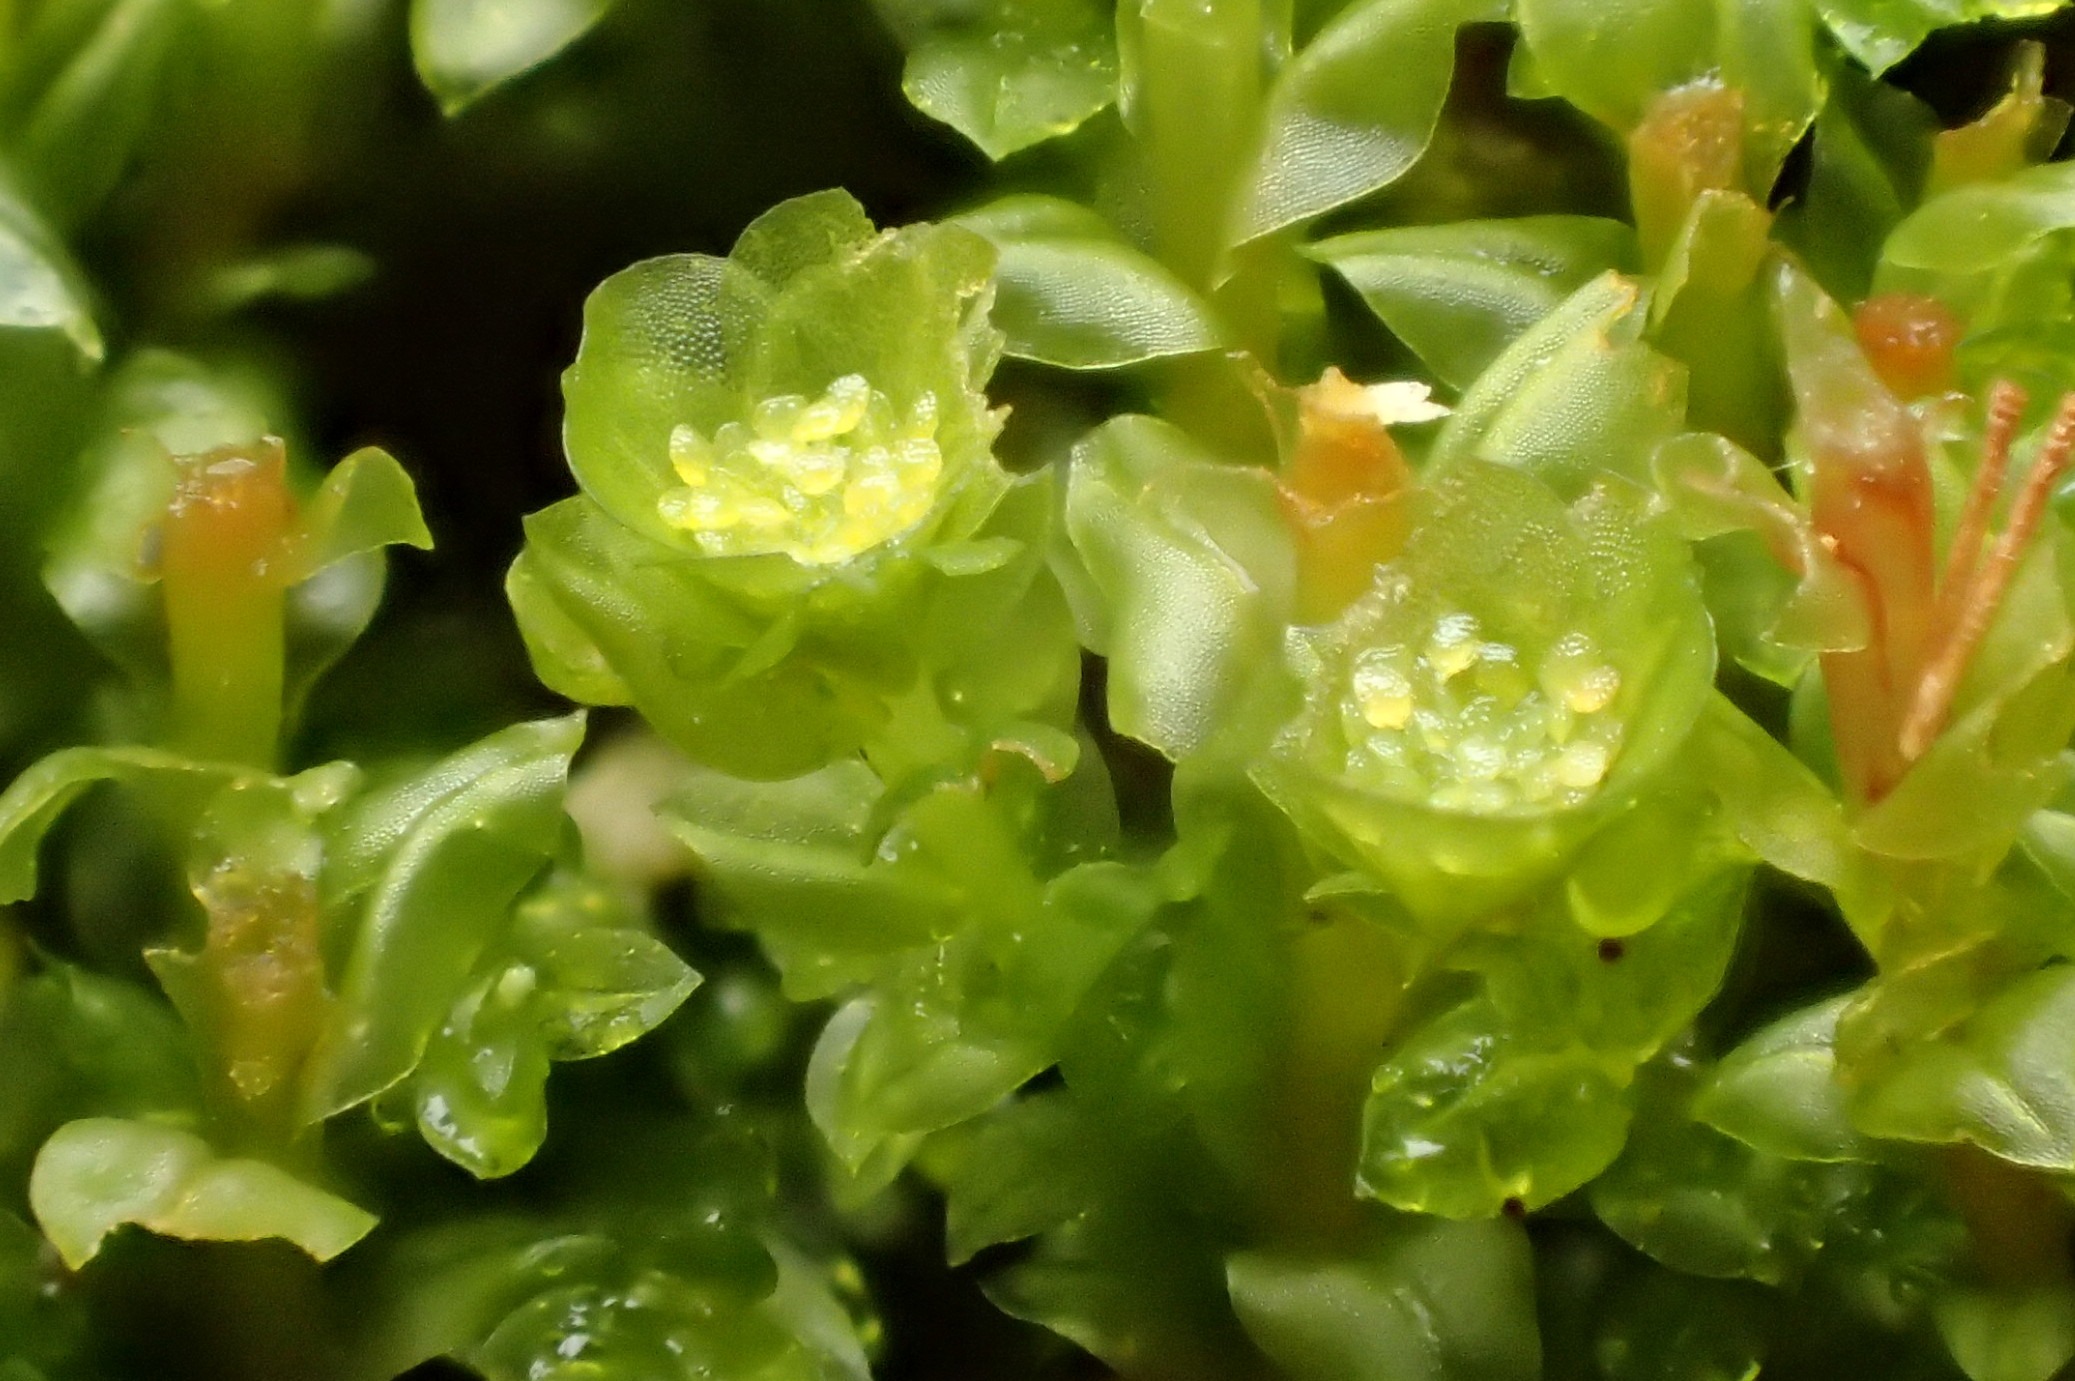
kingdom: Plantae
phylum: Bryophyta
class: Polytrichopsida
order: Tetraphidales
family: Tetraphidaceae
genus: Tetraphis
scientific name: Tetraphis pellucida
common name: Almindelig firtand
